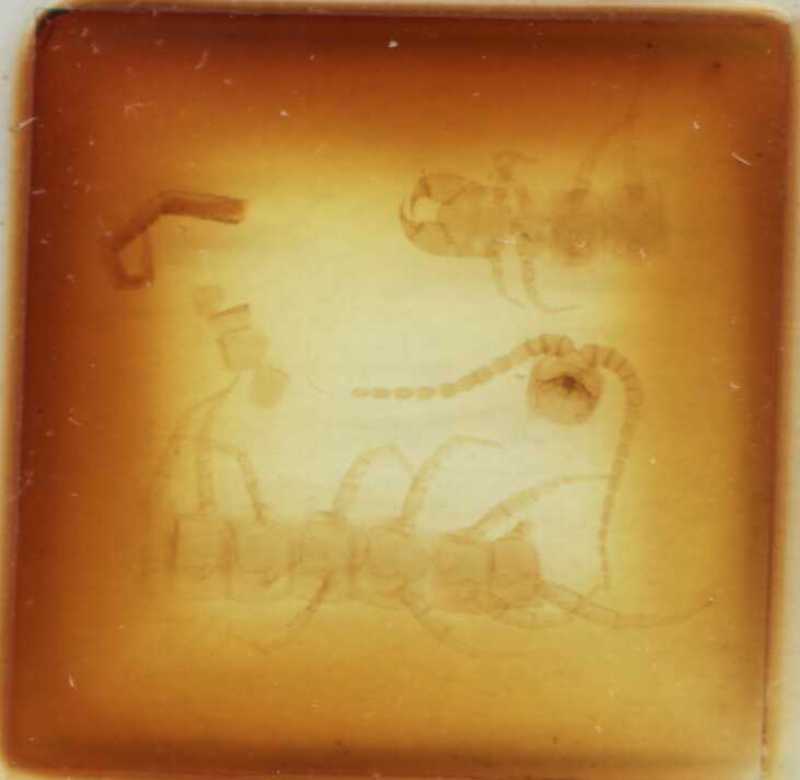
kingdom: Animalia
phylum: Arthropoda
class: Chilopoda
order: Scolopendromorpha
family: Cryptopidae
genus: Cryptops
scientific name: Cryptops illyricus
